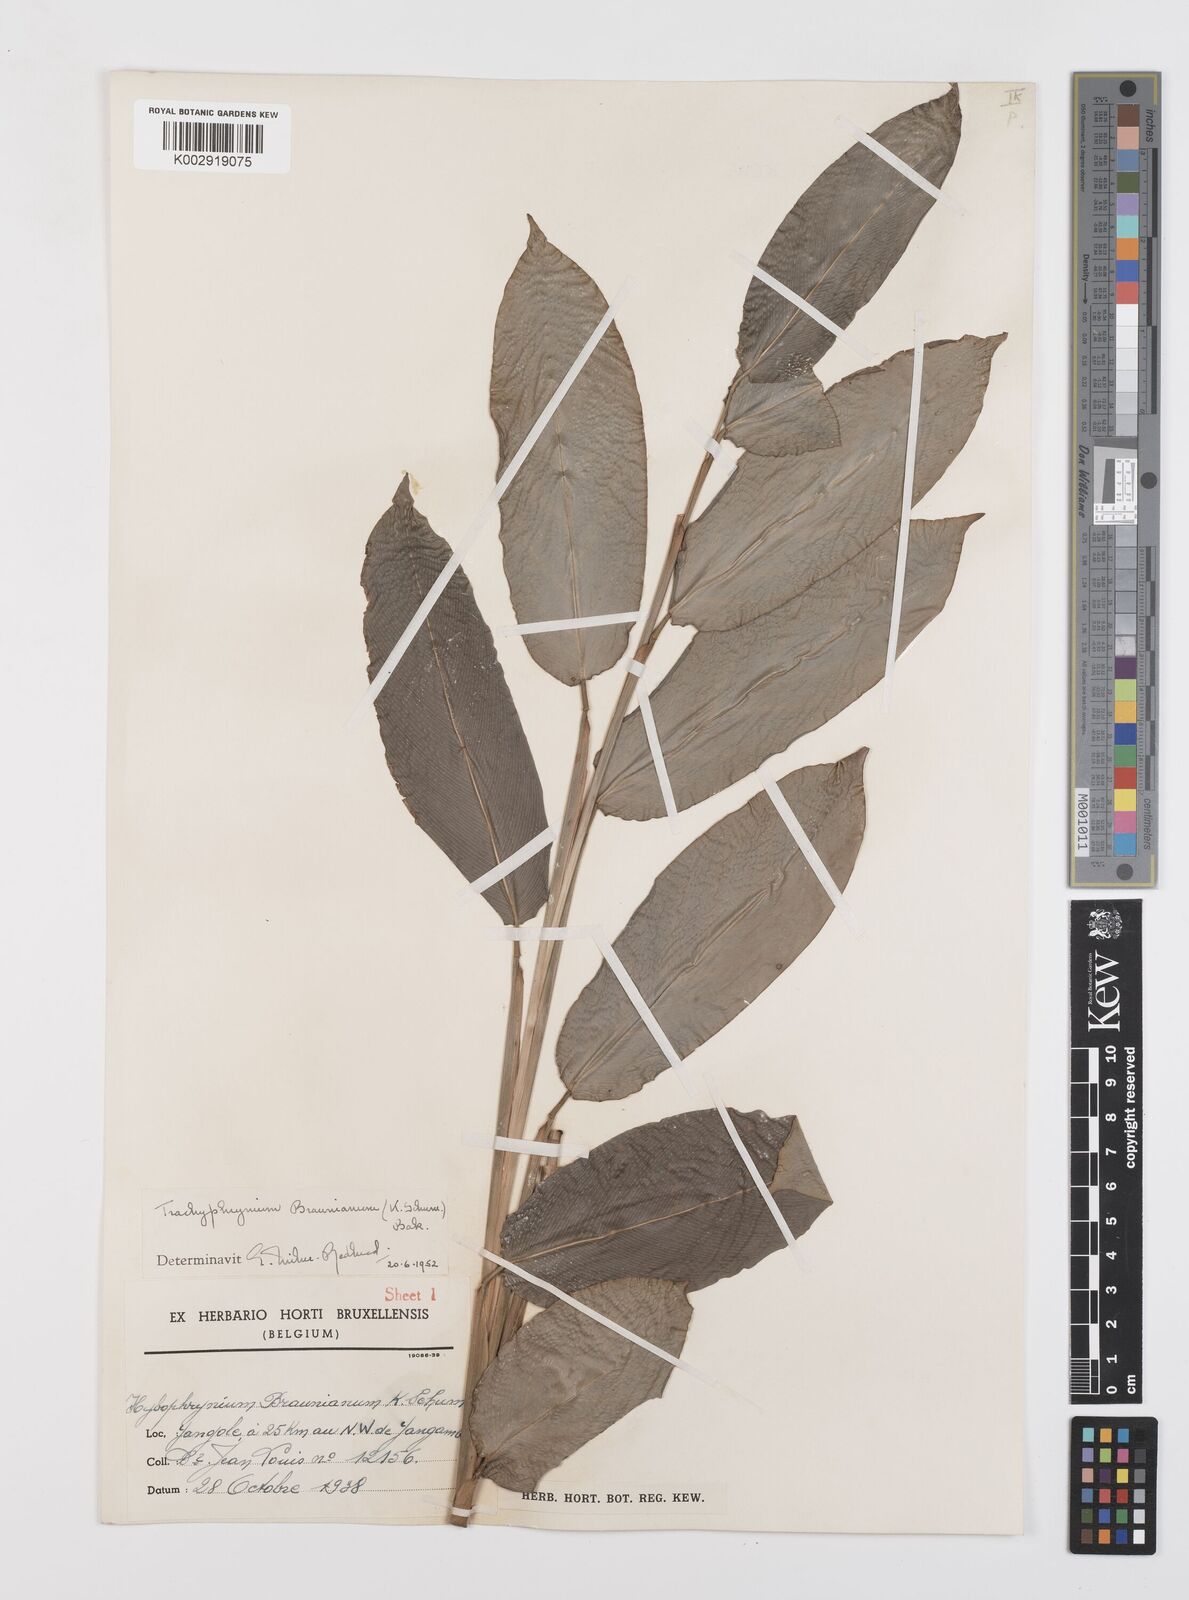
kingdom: Plantae
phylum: Tracheophyta
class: Liliopsida
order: Zingiberales
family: Marantaceae
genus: Trachyphrynium
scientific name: Trachyphrynium braunianum
